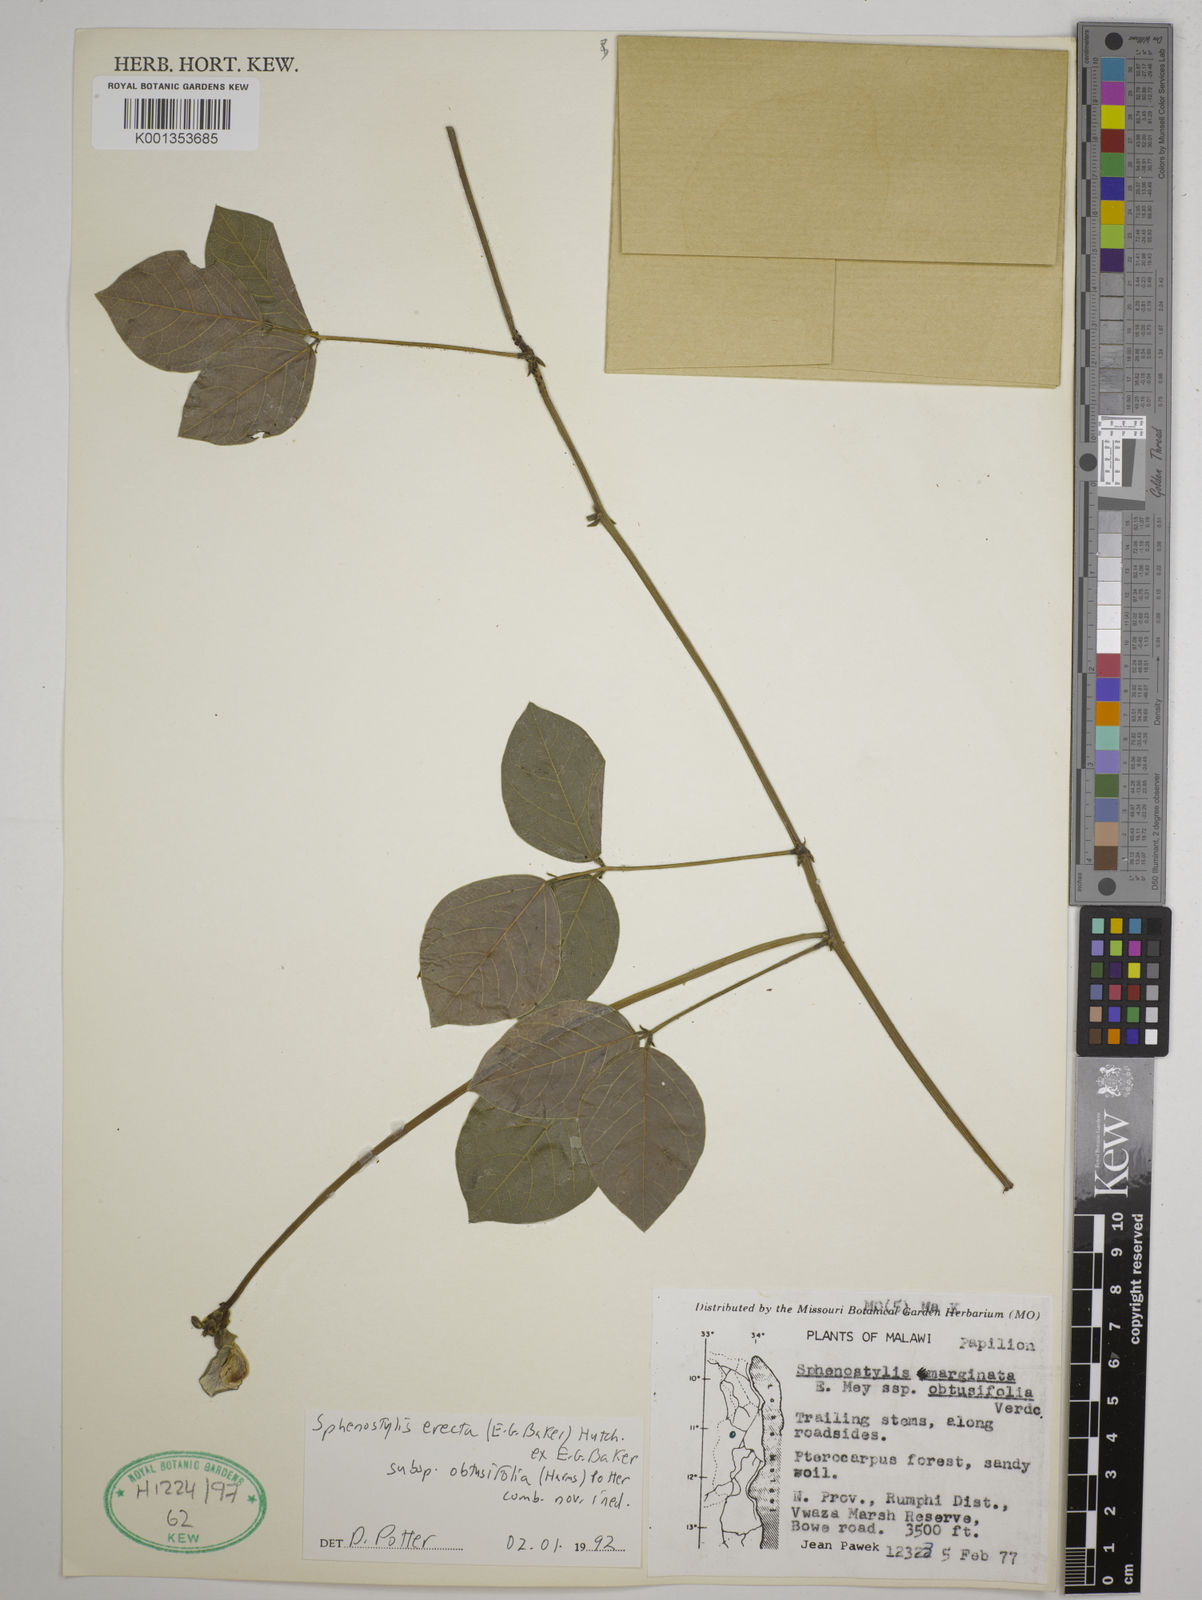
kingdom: Plantae
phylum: Tracheophyta
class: Magnoliopsida
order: Fabales
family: Fabaceae
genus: Sphenostylis
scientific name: Sphenostylis erecta
